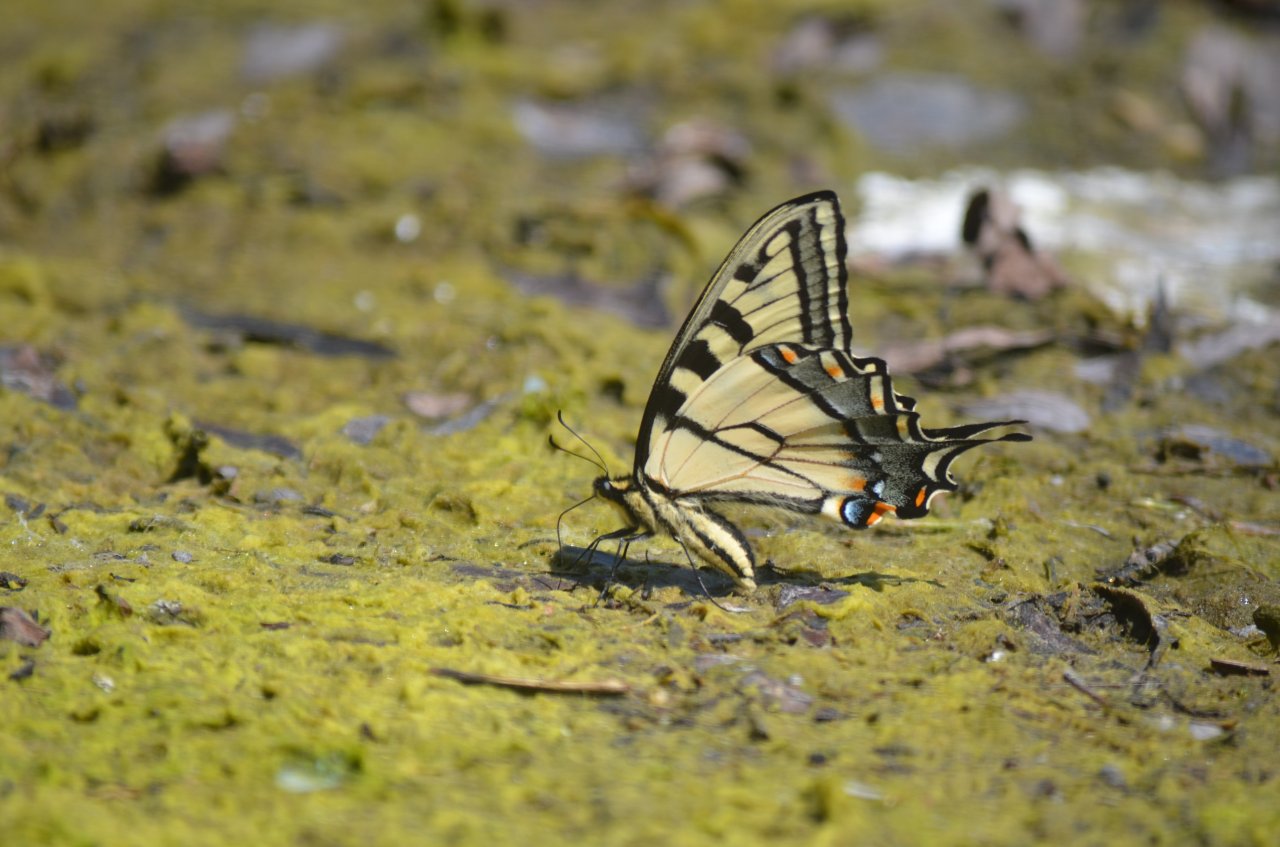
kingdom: Animalia
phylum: Arthropoda
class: Insecta
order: Lepidoptera
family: Papilionidae
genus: Pterourus
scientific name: Pterourus glaucus
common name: Eastern Tiger Swallowtail
